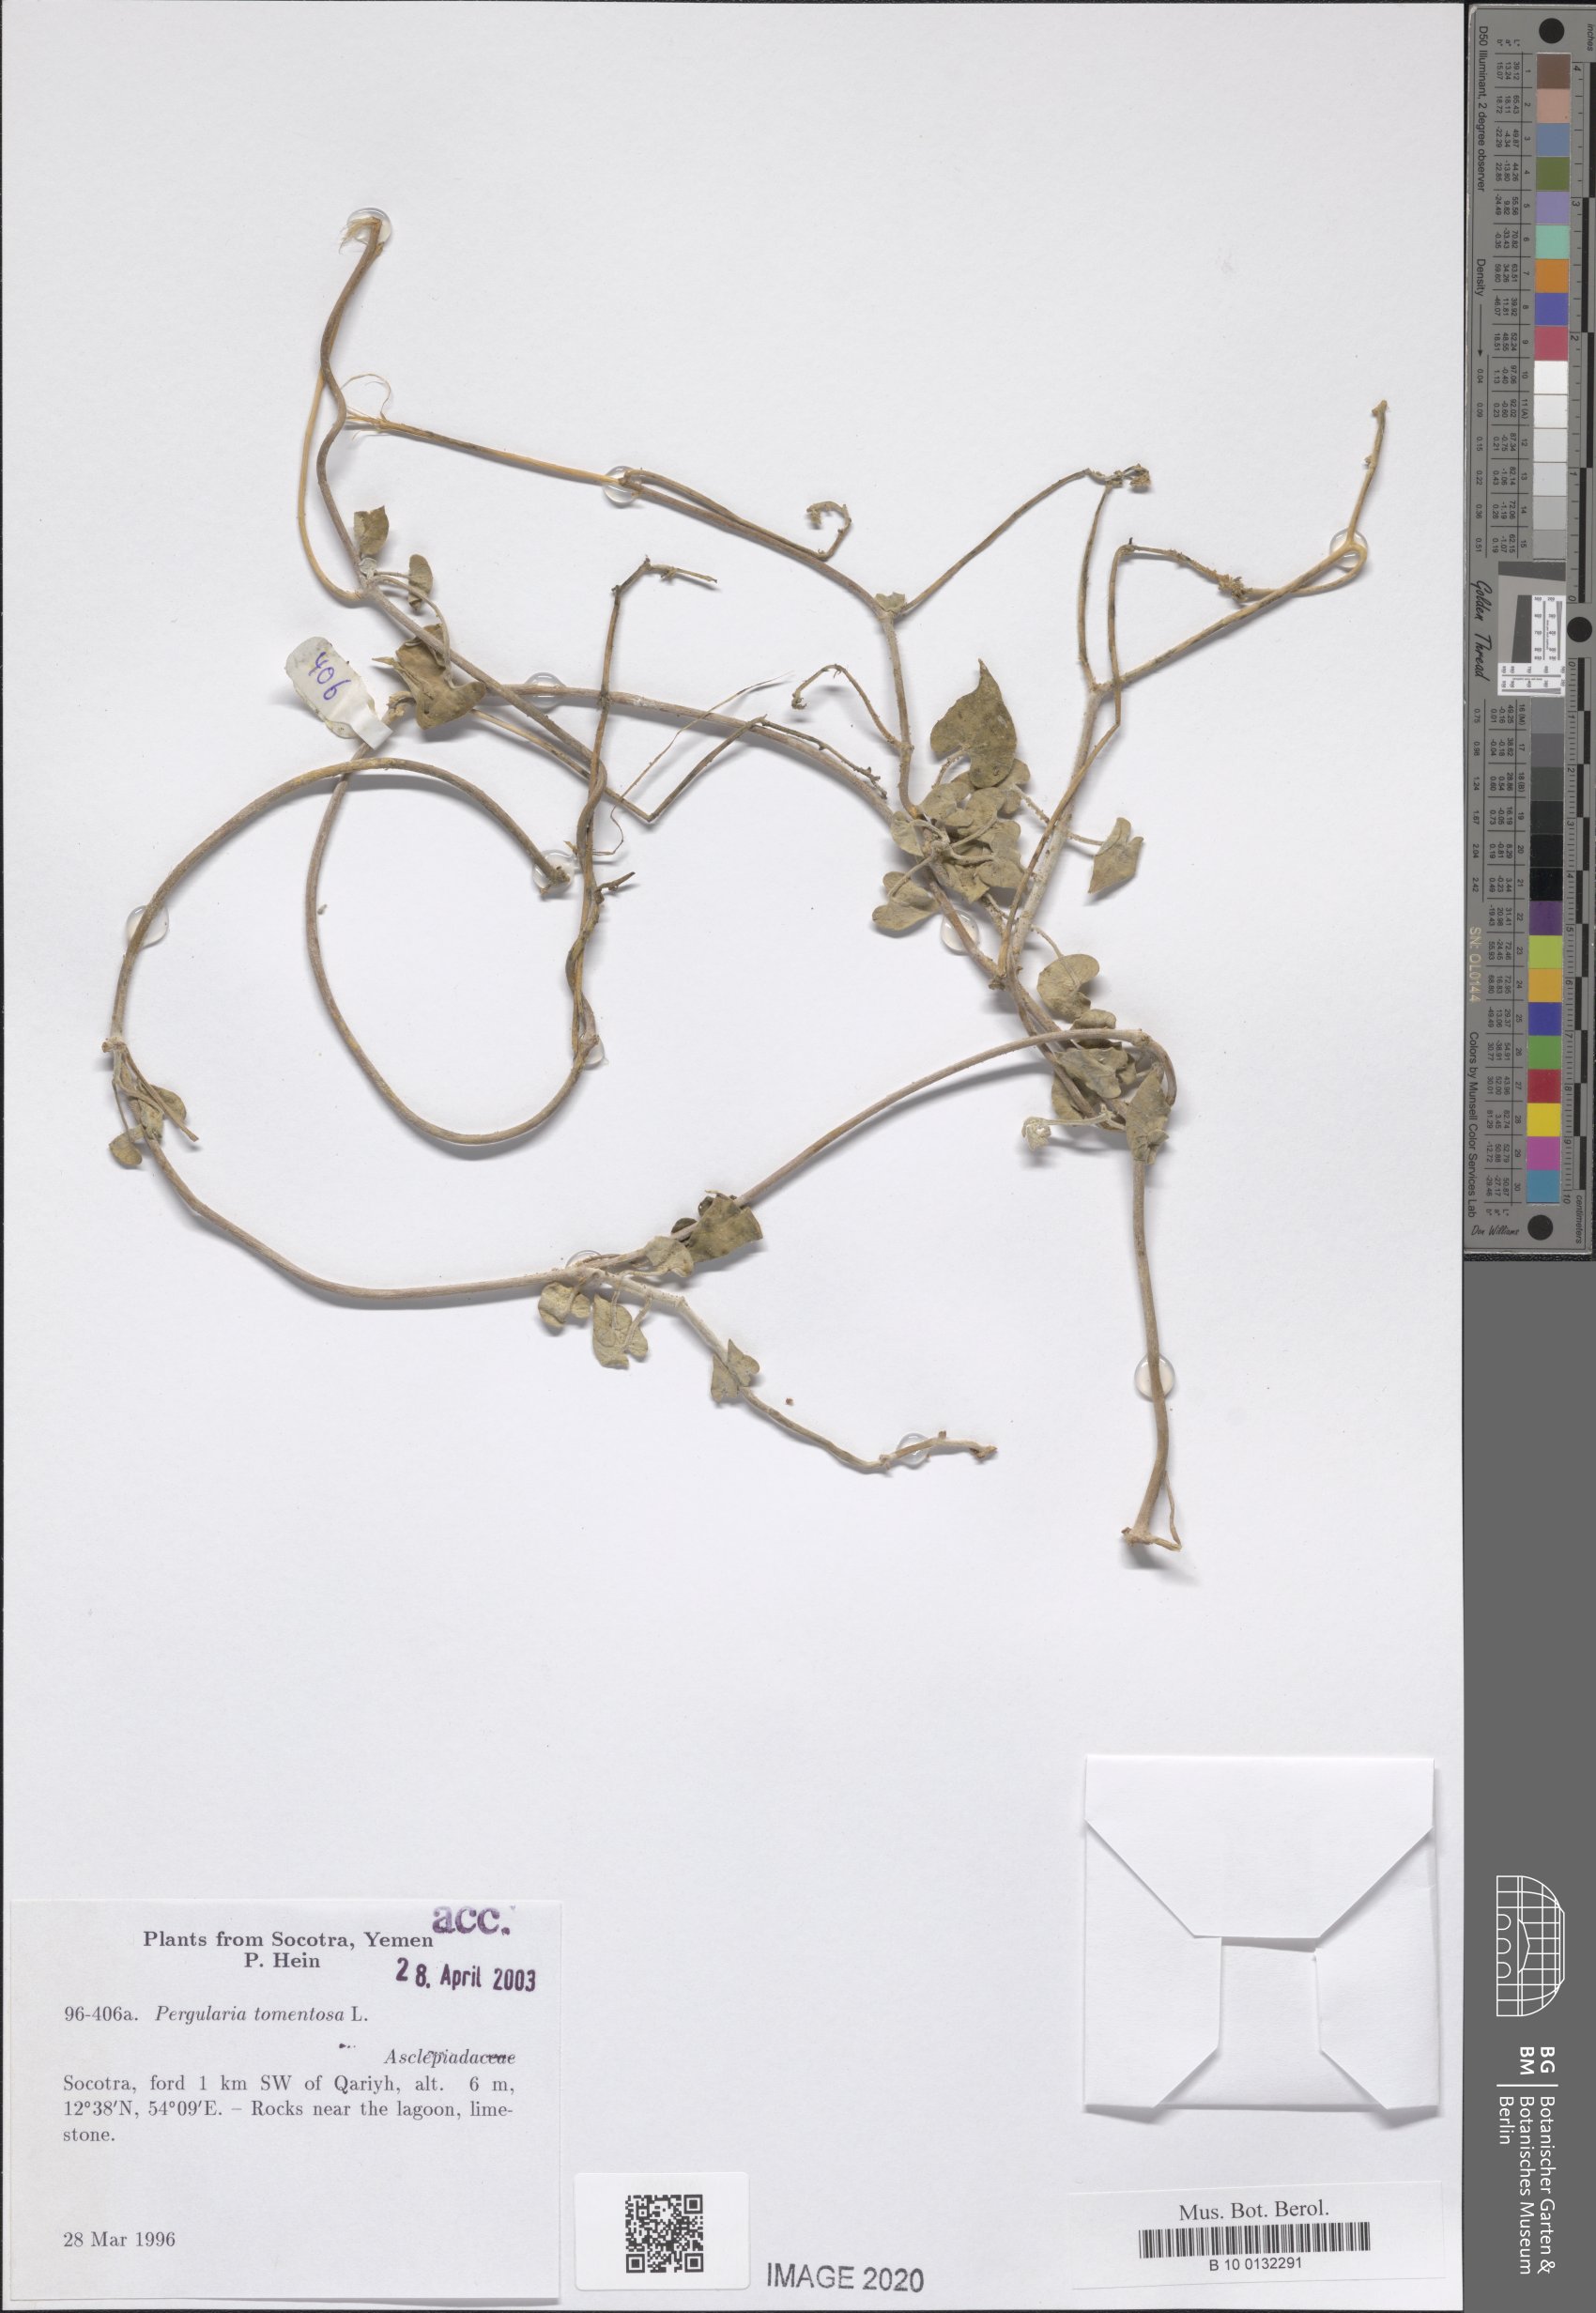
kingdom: Plantae
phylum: Tracheophyta
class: Magnoliopsida
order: Gentianales
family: Apocynaceae
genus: Pergularia
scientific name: Pergularia tomentosa
